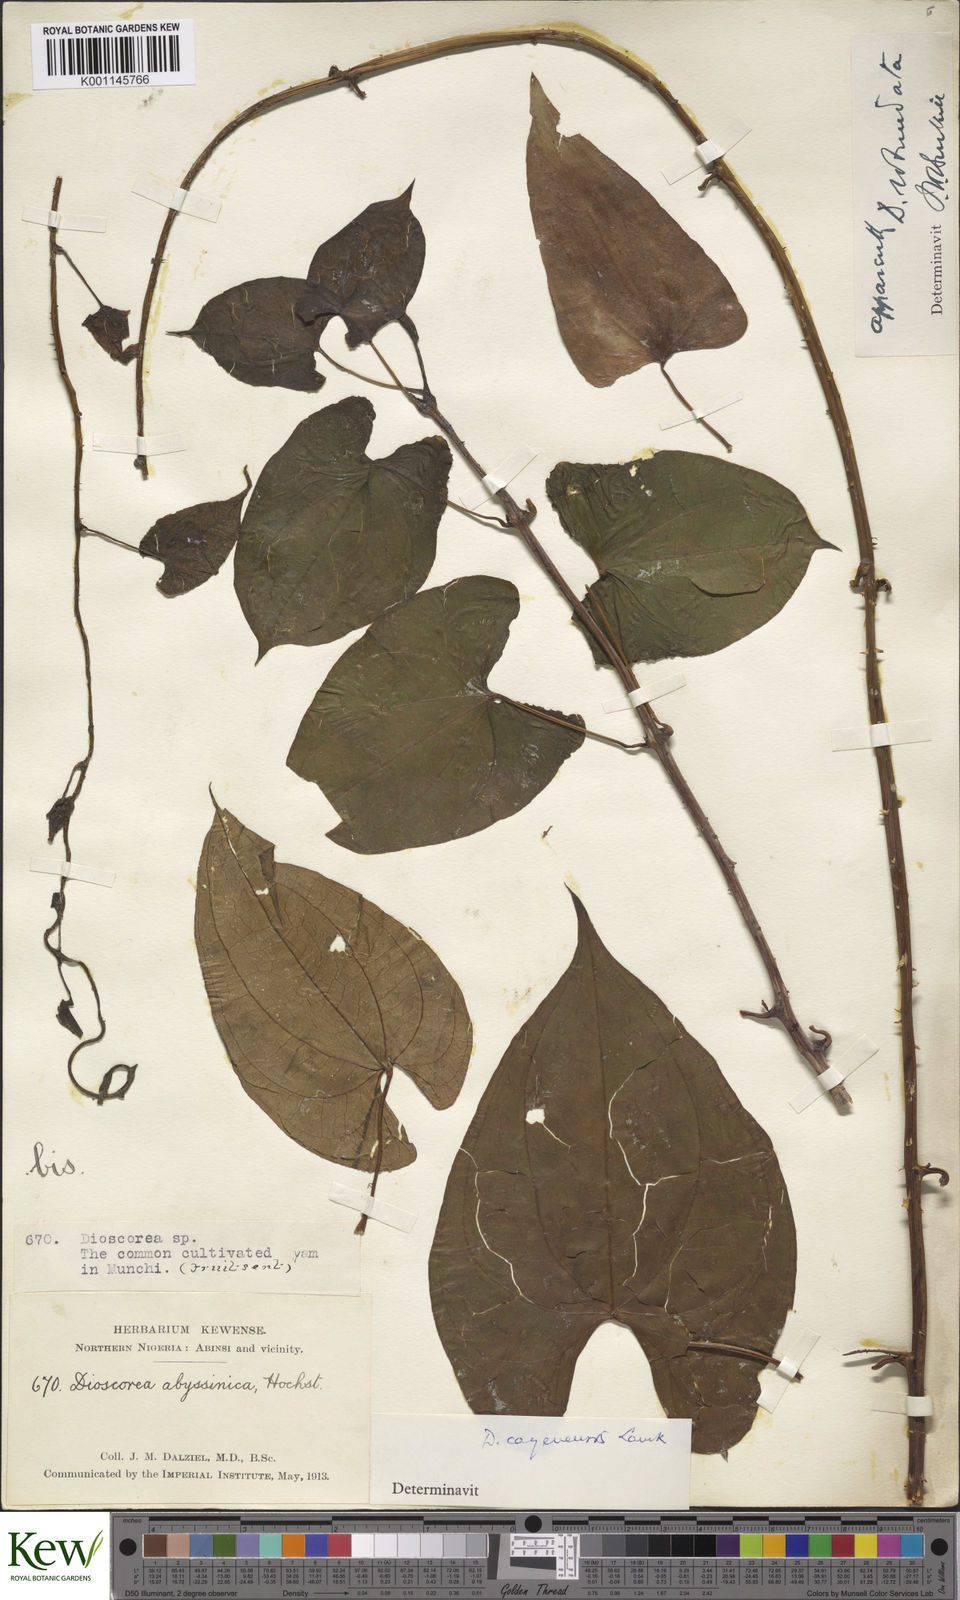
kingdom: Plantae
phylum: Tracheophyta
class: Liliopsida
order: Dioscoreales
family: Dioscoreaceae
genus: Dioscorea
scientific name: Dioscorea cayenensis
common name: Attoto yam
